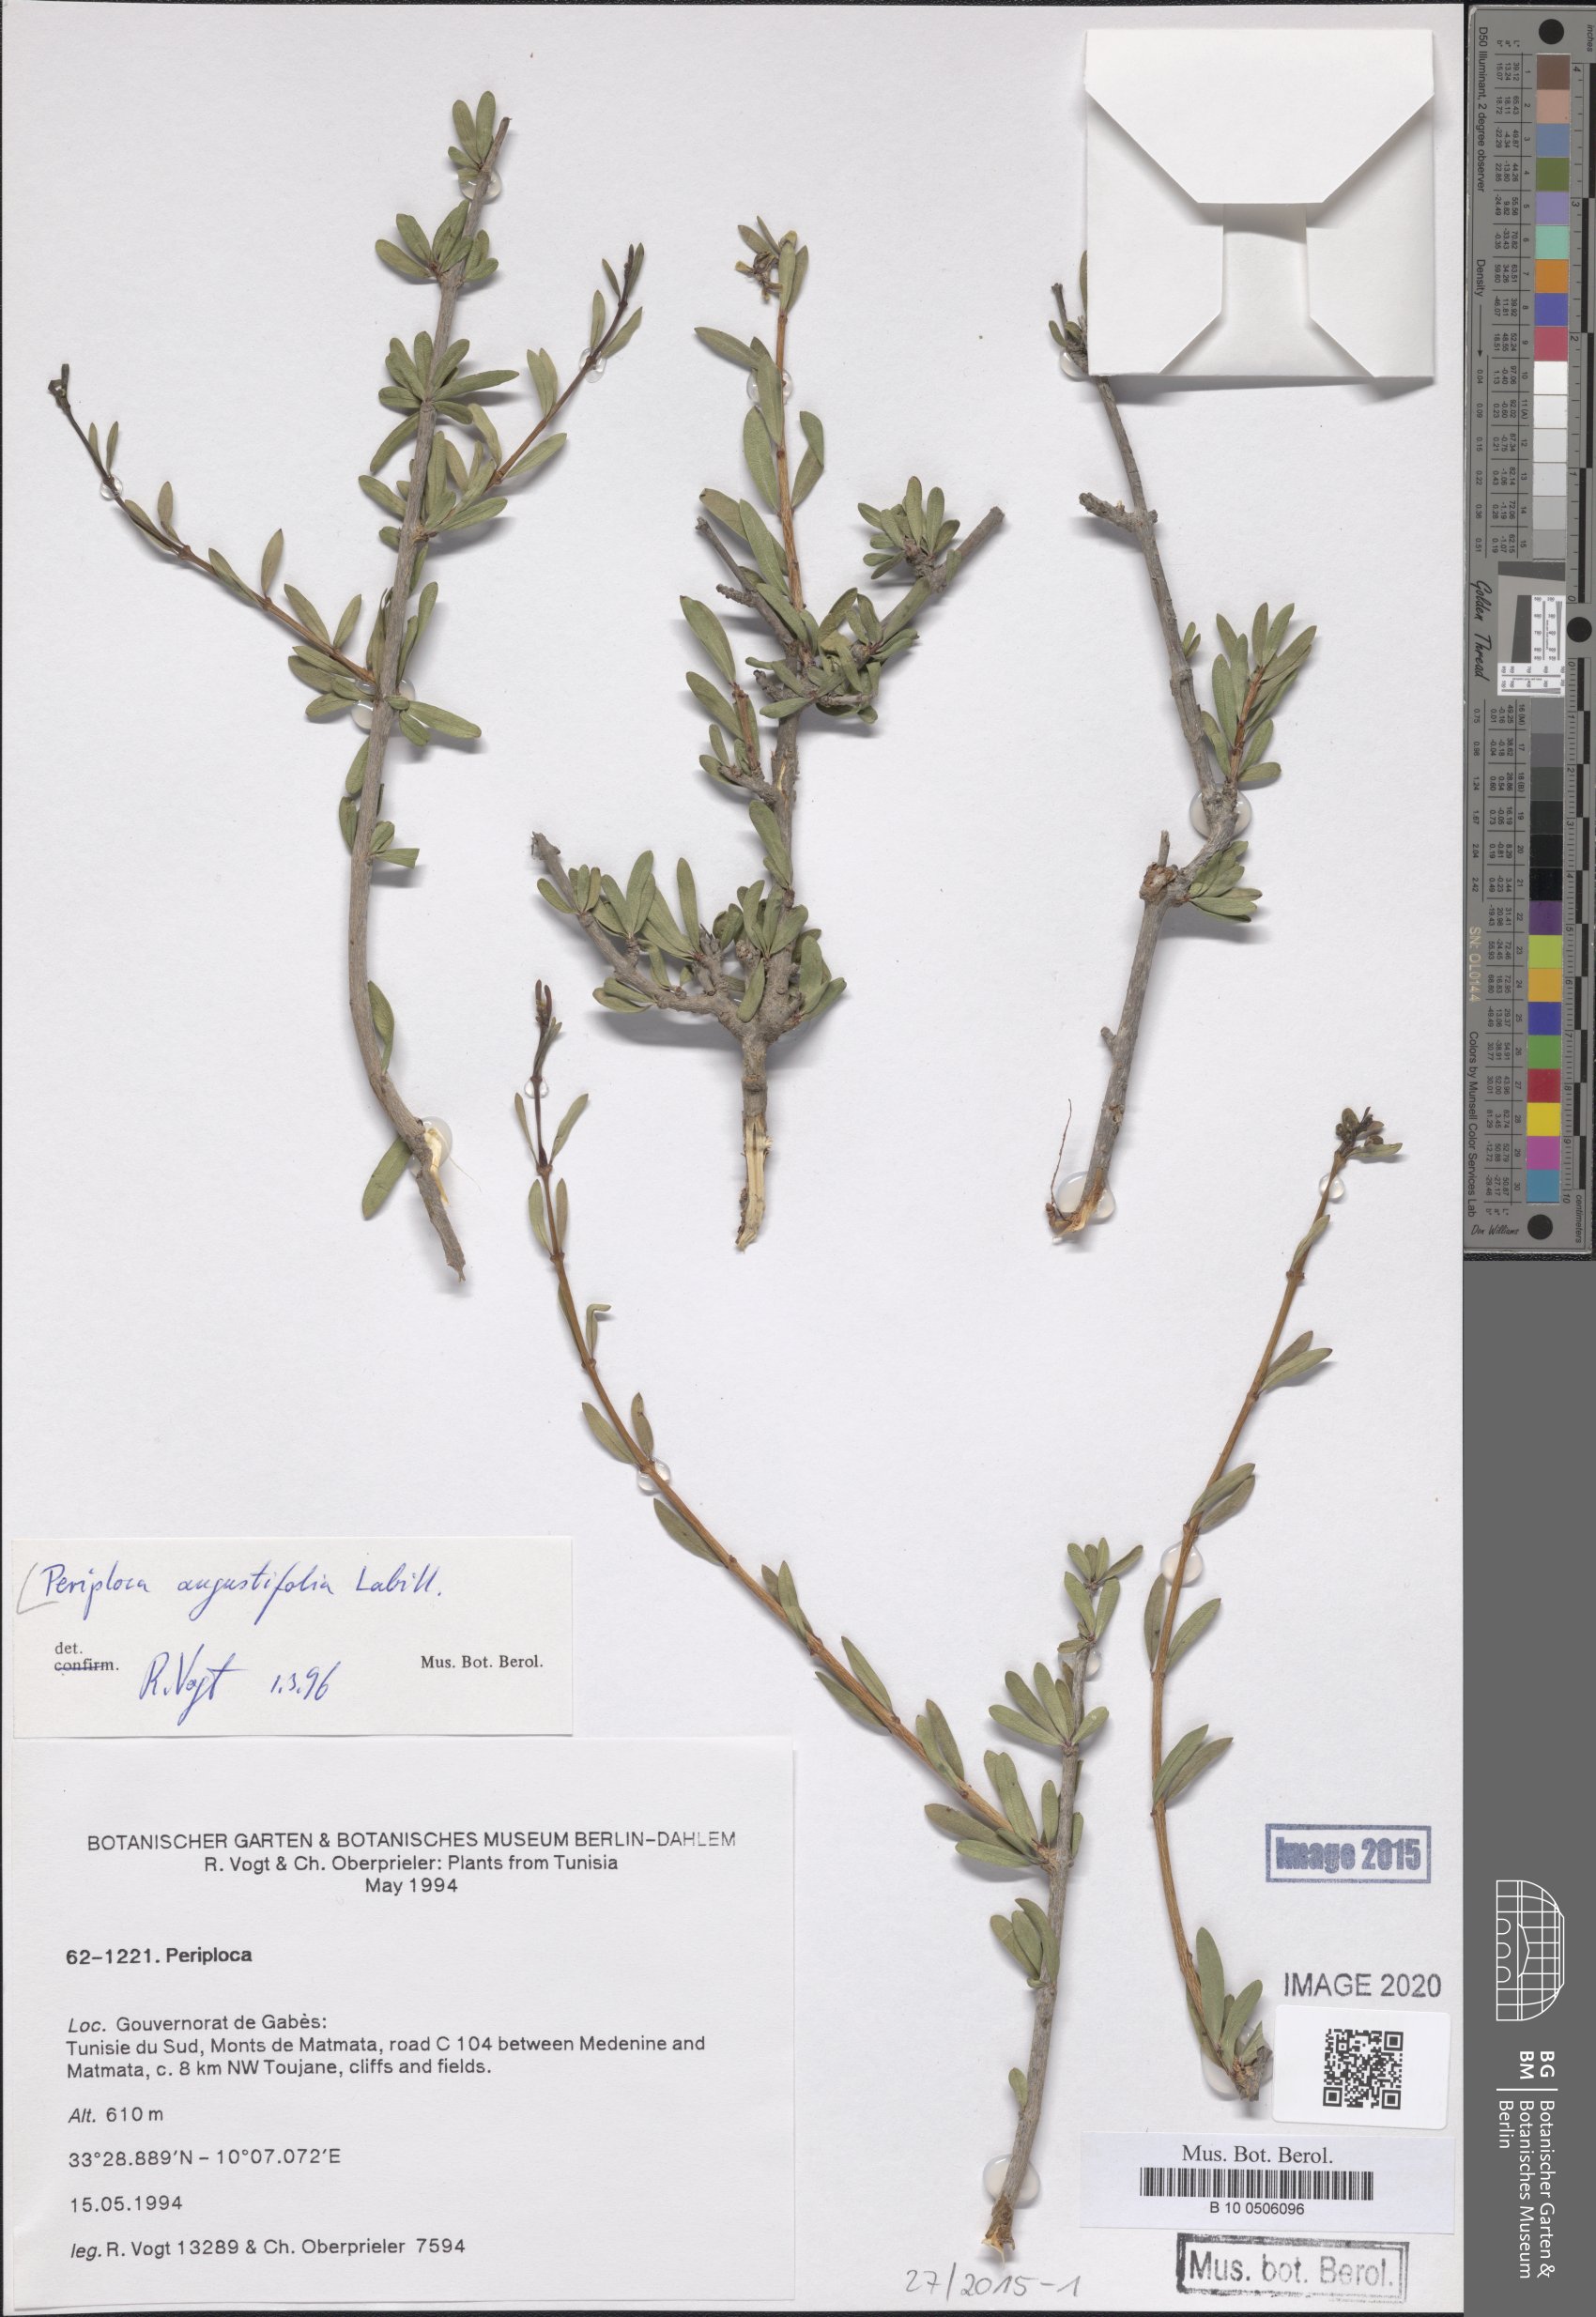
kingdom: Plantae
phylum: Tracheophyta
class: Magnoliopsida
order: Gentianales
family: Apocynaceae
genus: Periploca
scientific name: Periploca laevigata
